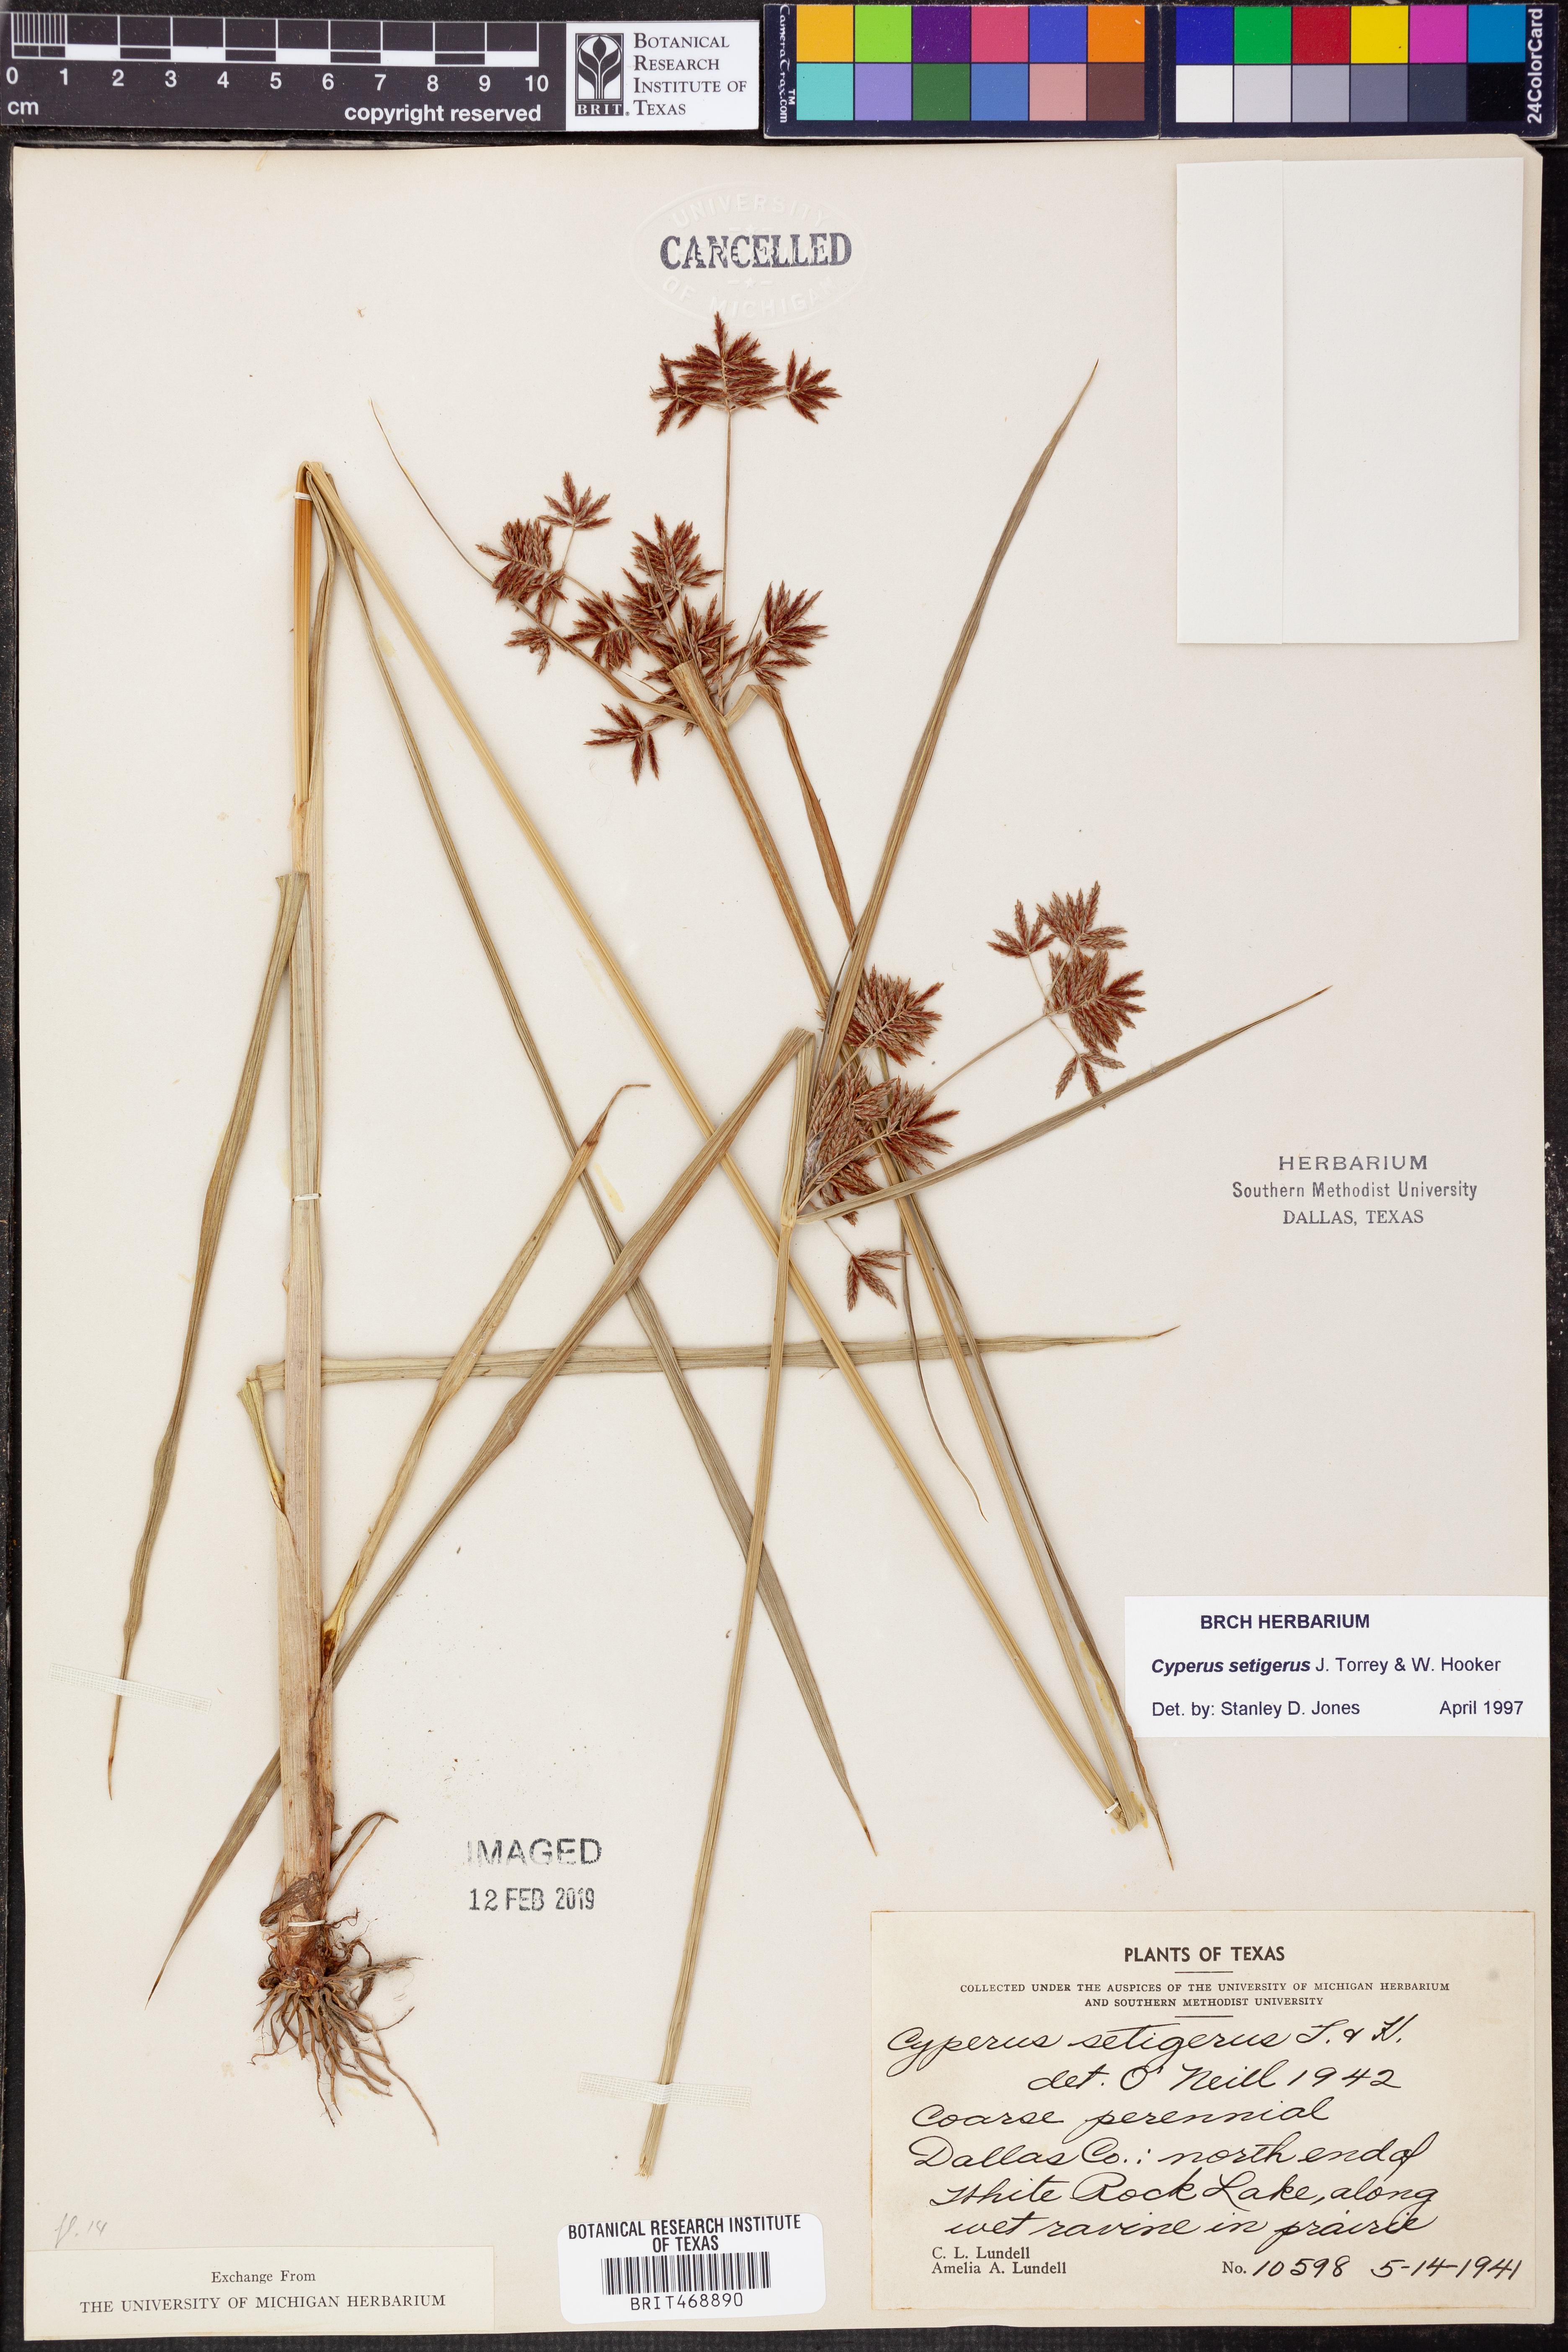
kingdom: Plantae
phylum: Tracheophyta
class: Liliopsida
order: Poales
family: Cyperaceae
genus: Cyperus
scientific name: Cyperus setigerus
